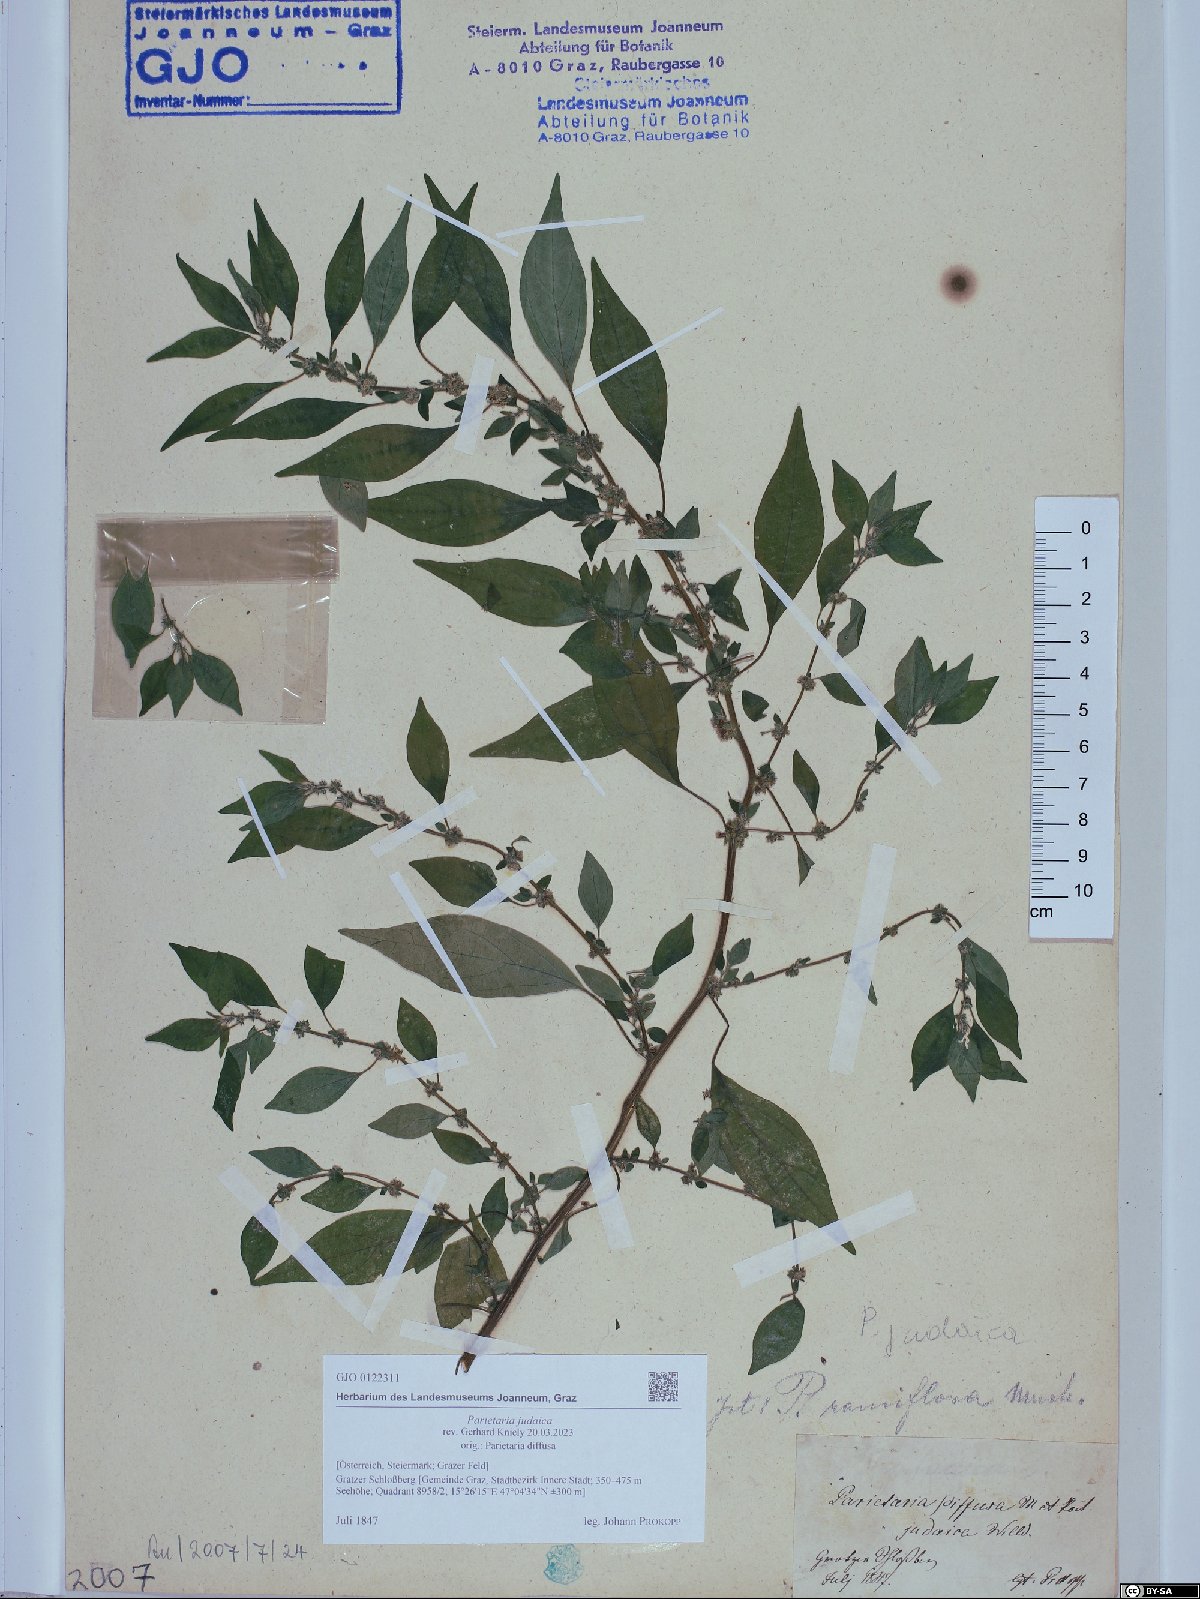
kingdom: Plantae
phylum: Tracheophyta
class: Magnoliopsida
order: Rosales
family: Urticaceae
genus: Parietaria
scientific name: Parietaria judaica
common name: Pellitory-of-the-wall
